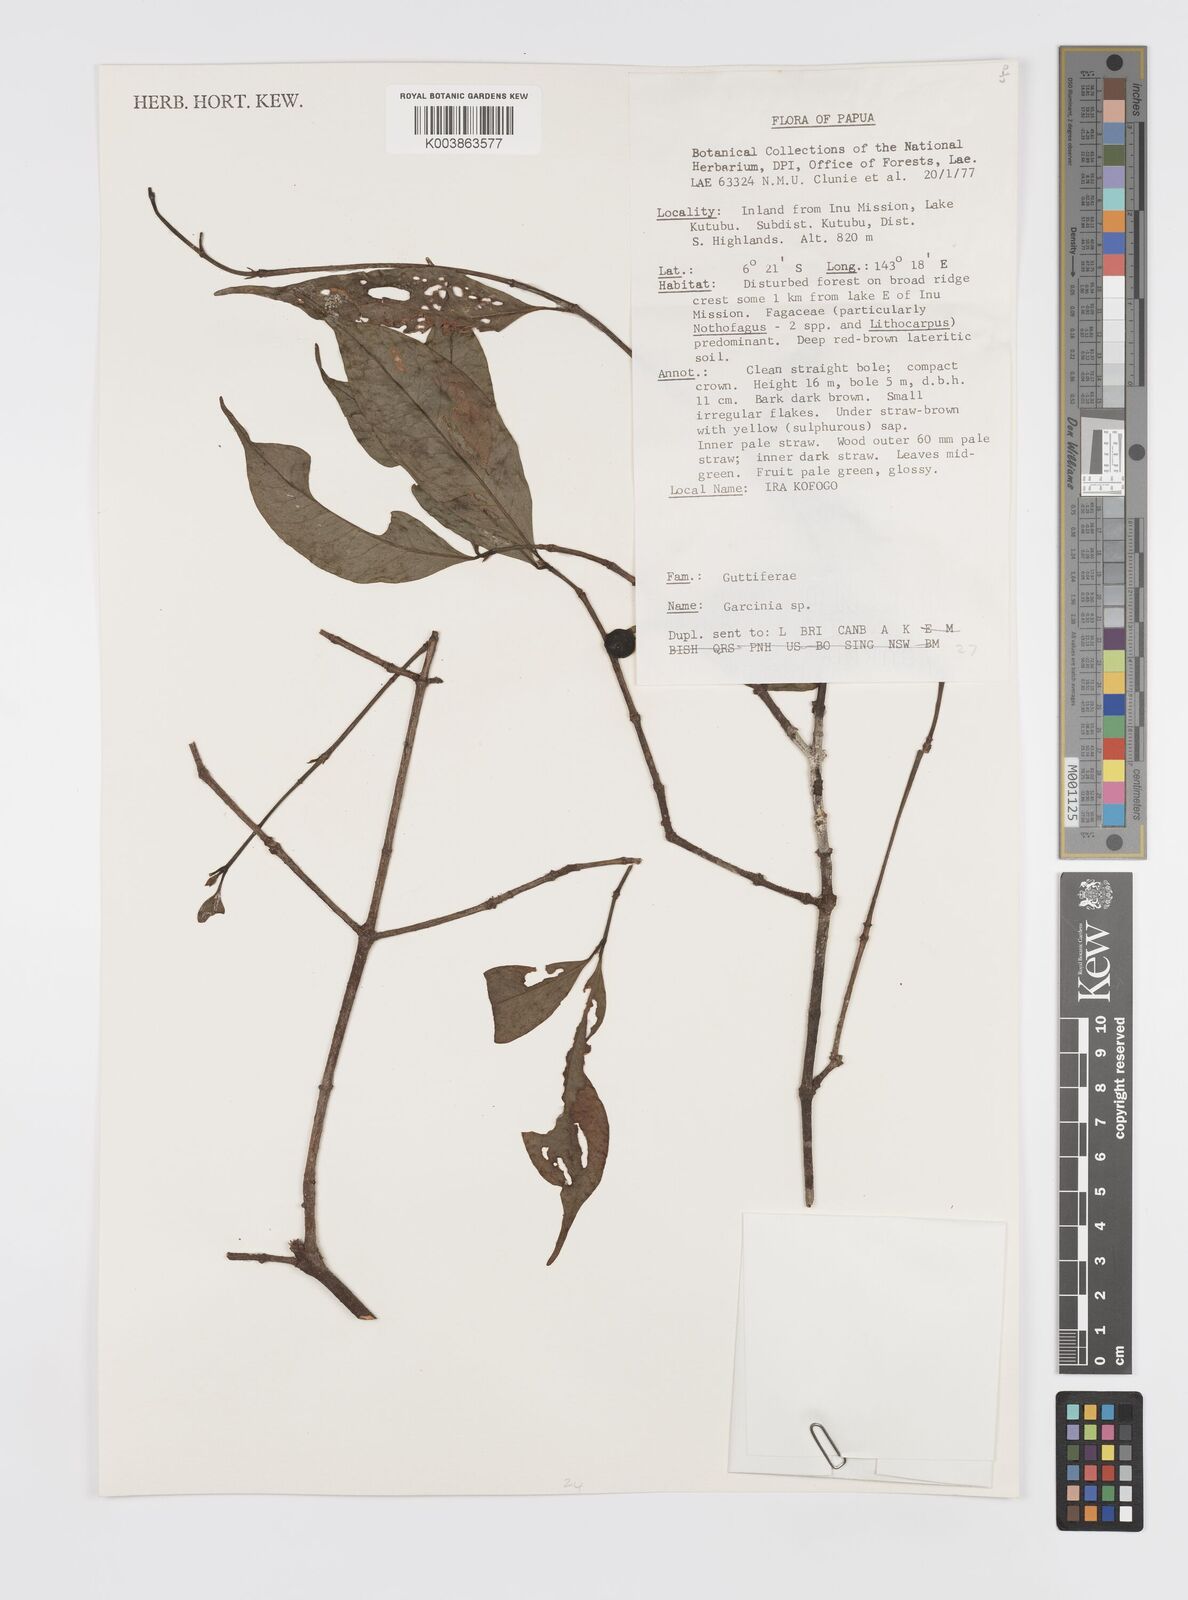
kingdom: Plantae
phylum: Tracheophyta
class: Magnoliopsida
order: Malpighiales
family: Clusiaceae
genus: Garcinia
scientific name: Garcinia
